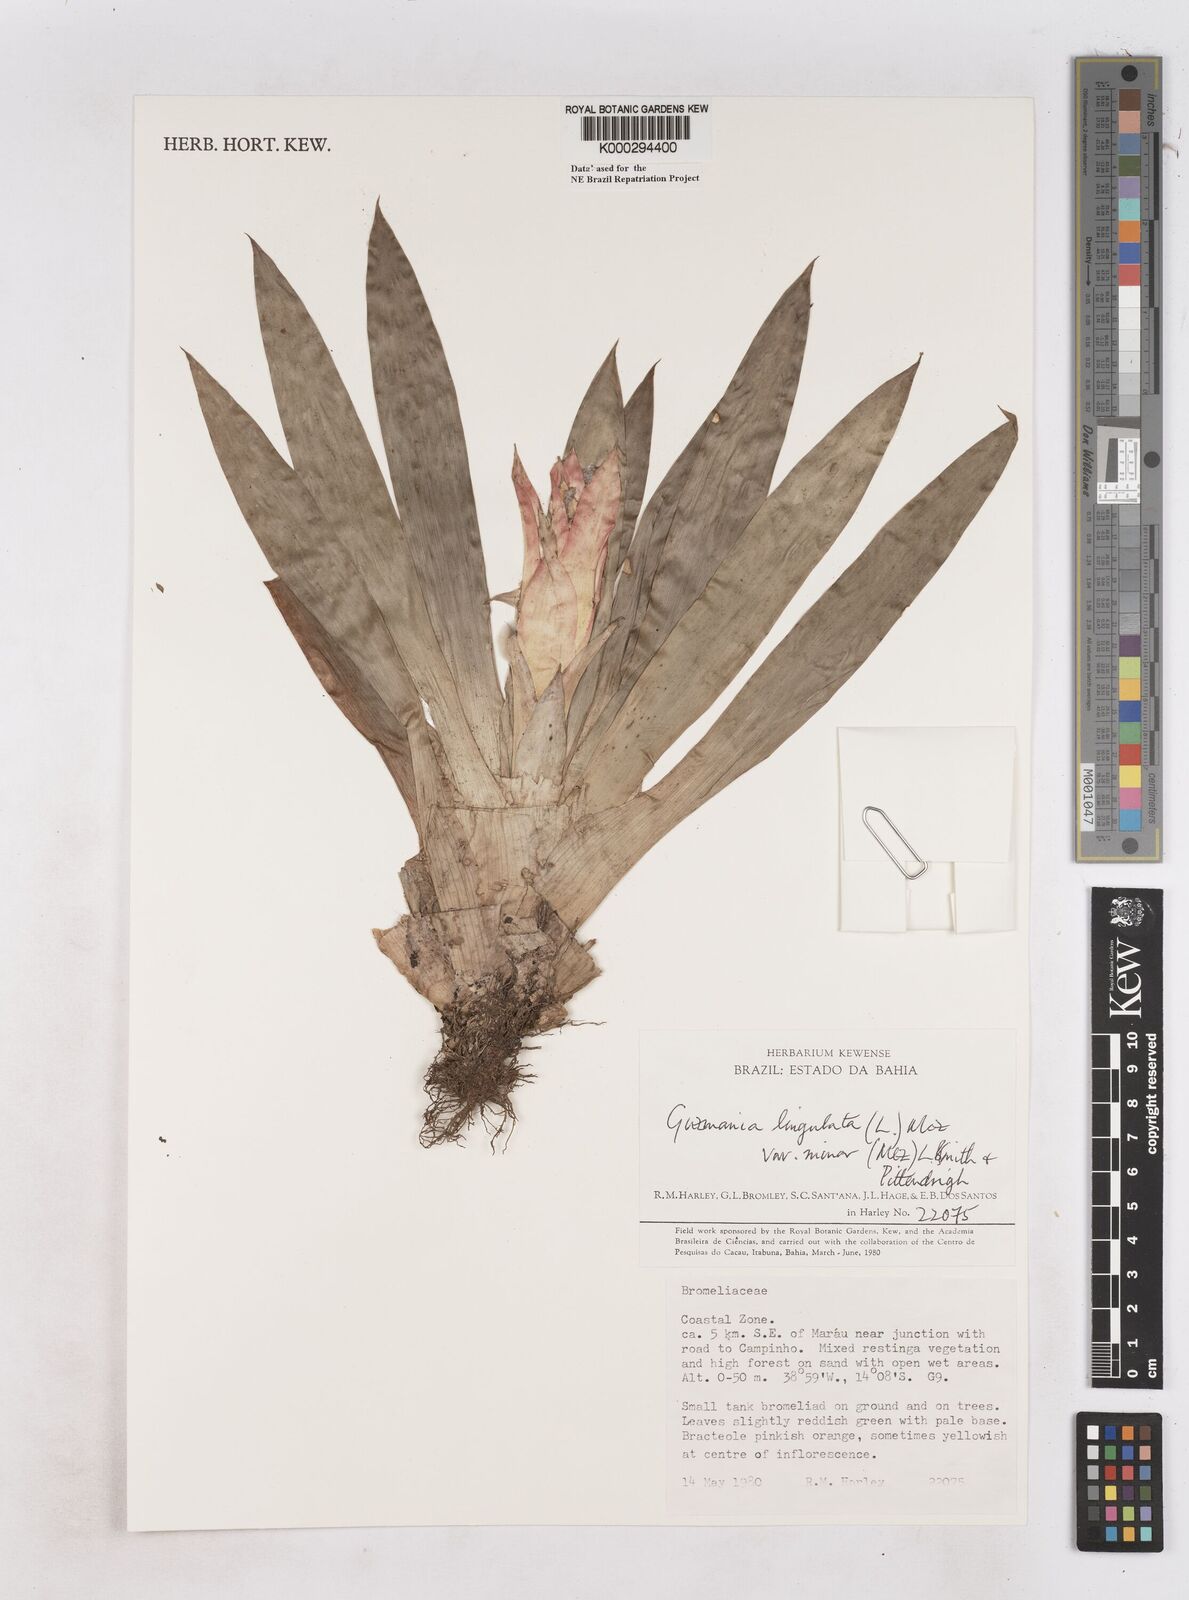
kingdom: Plantae
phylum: Tracheophyta
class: Liliopsida
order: Poales
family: Bromeliaceae
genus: Guzmania
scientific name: Guzmania lingulata
